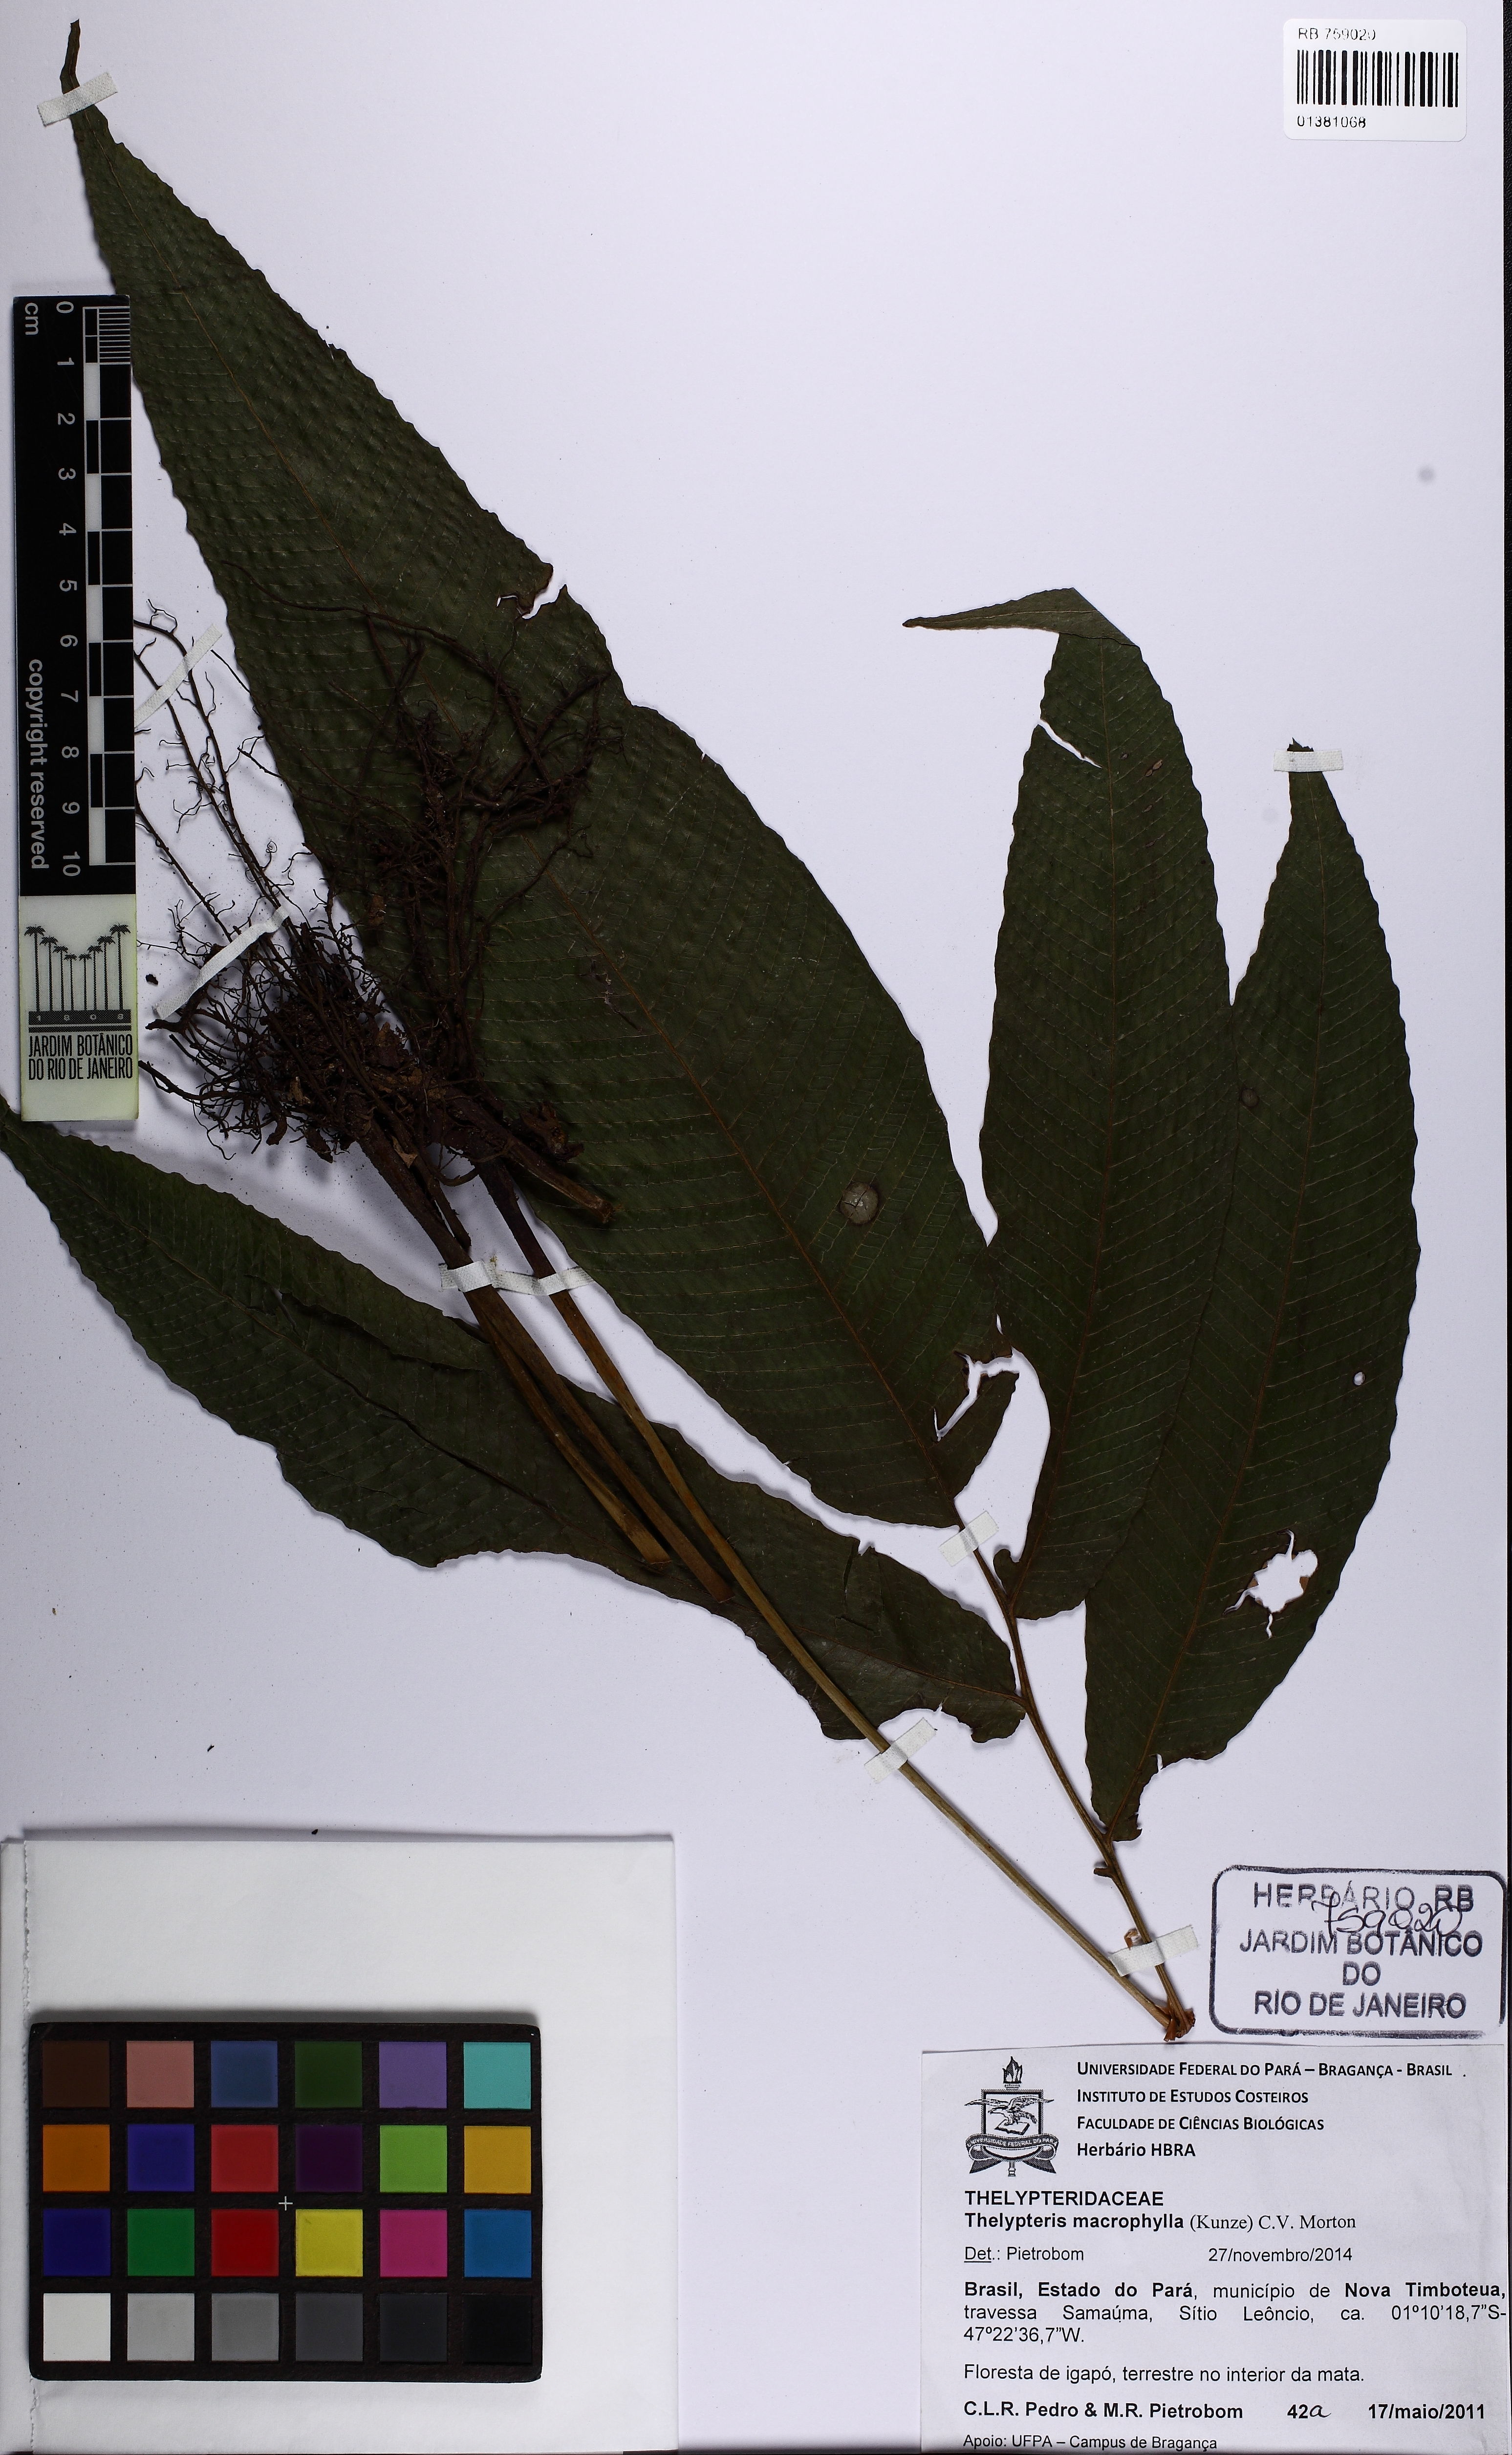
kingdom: Plantae
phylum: Tracheophyta
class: Polypodiopsida
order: Polypodiales
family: Thelypteridaceae
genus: Meniscium
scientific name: Meniscium macrophyllum
